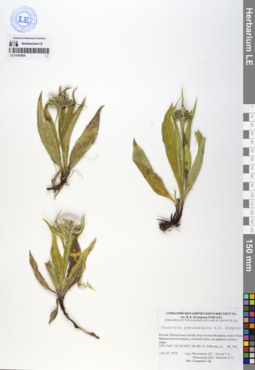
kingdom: Plantae
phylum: Tracheophyta
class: Magnoliopsida
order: Asterales
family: Asteraceae
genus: Saussurea
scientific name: Saussurea pseudoalpina
